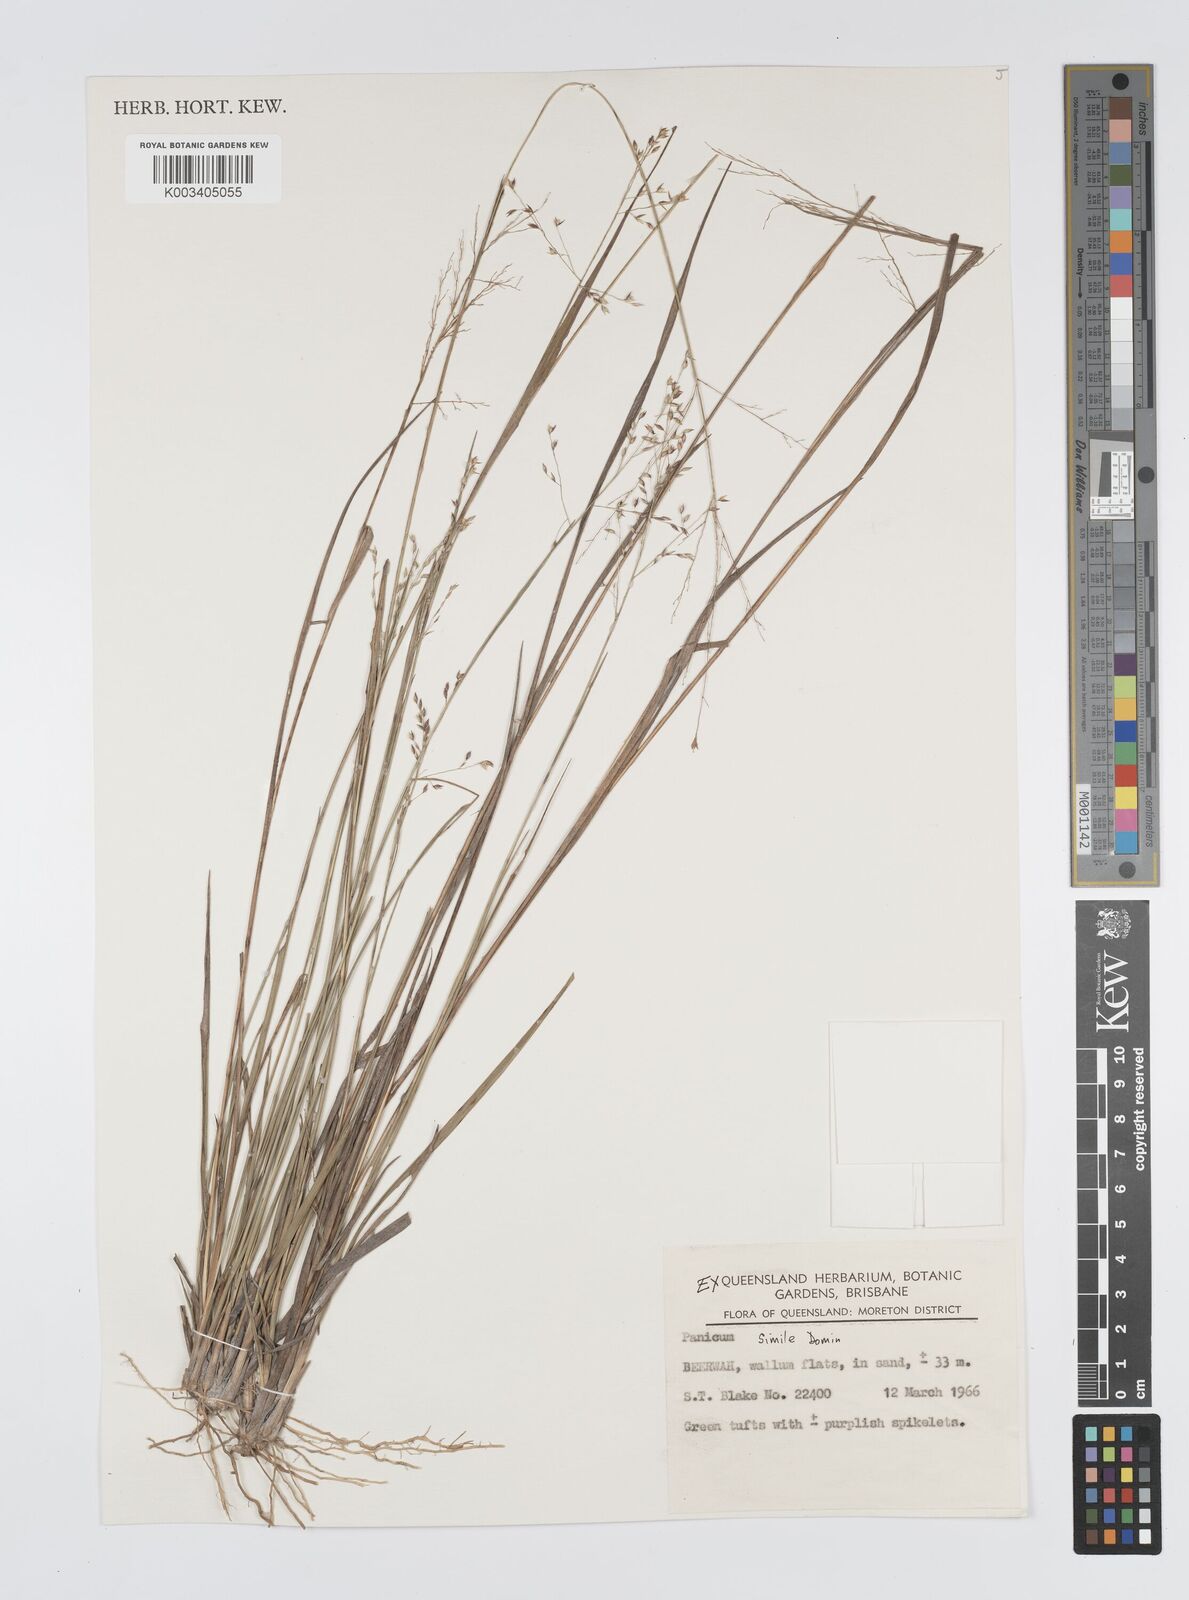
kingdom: Plantae
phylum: Tracheophyta
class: Liliopsida
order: Poales
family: Poaceae
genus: Panicum
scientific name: Panicum simile
